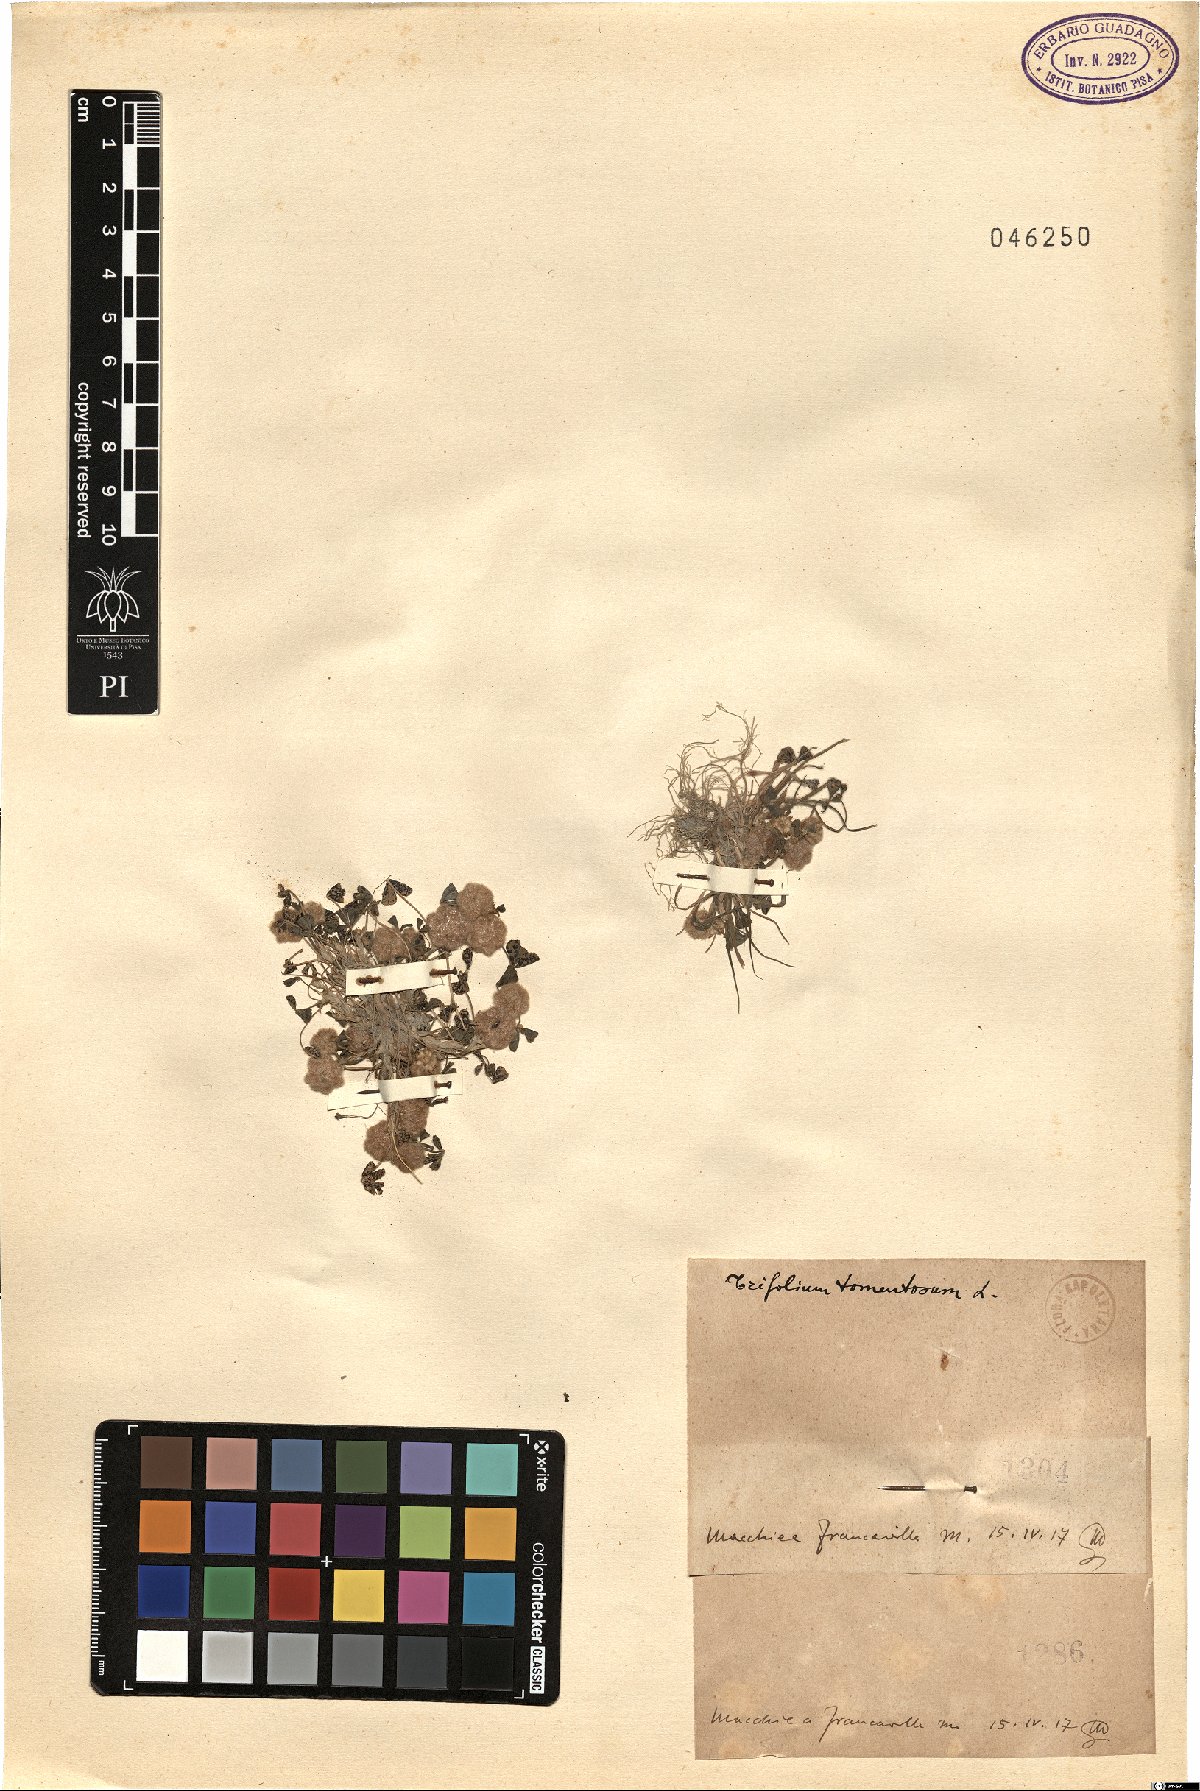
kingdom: Plantae
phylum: Tracheophyta
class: Magnoliopsida
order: Fabales
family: Fabaceae
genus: Trifolium
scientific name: Trifolium tomentosum
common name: Woolly clover
